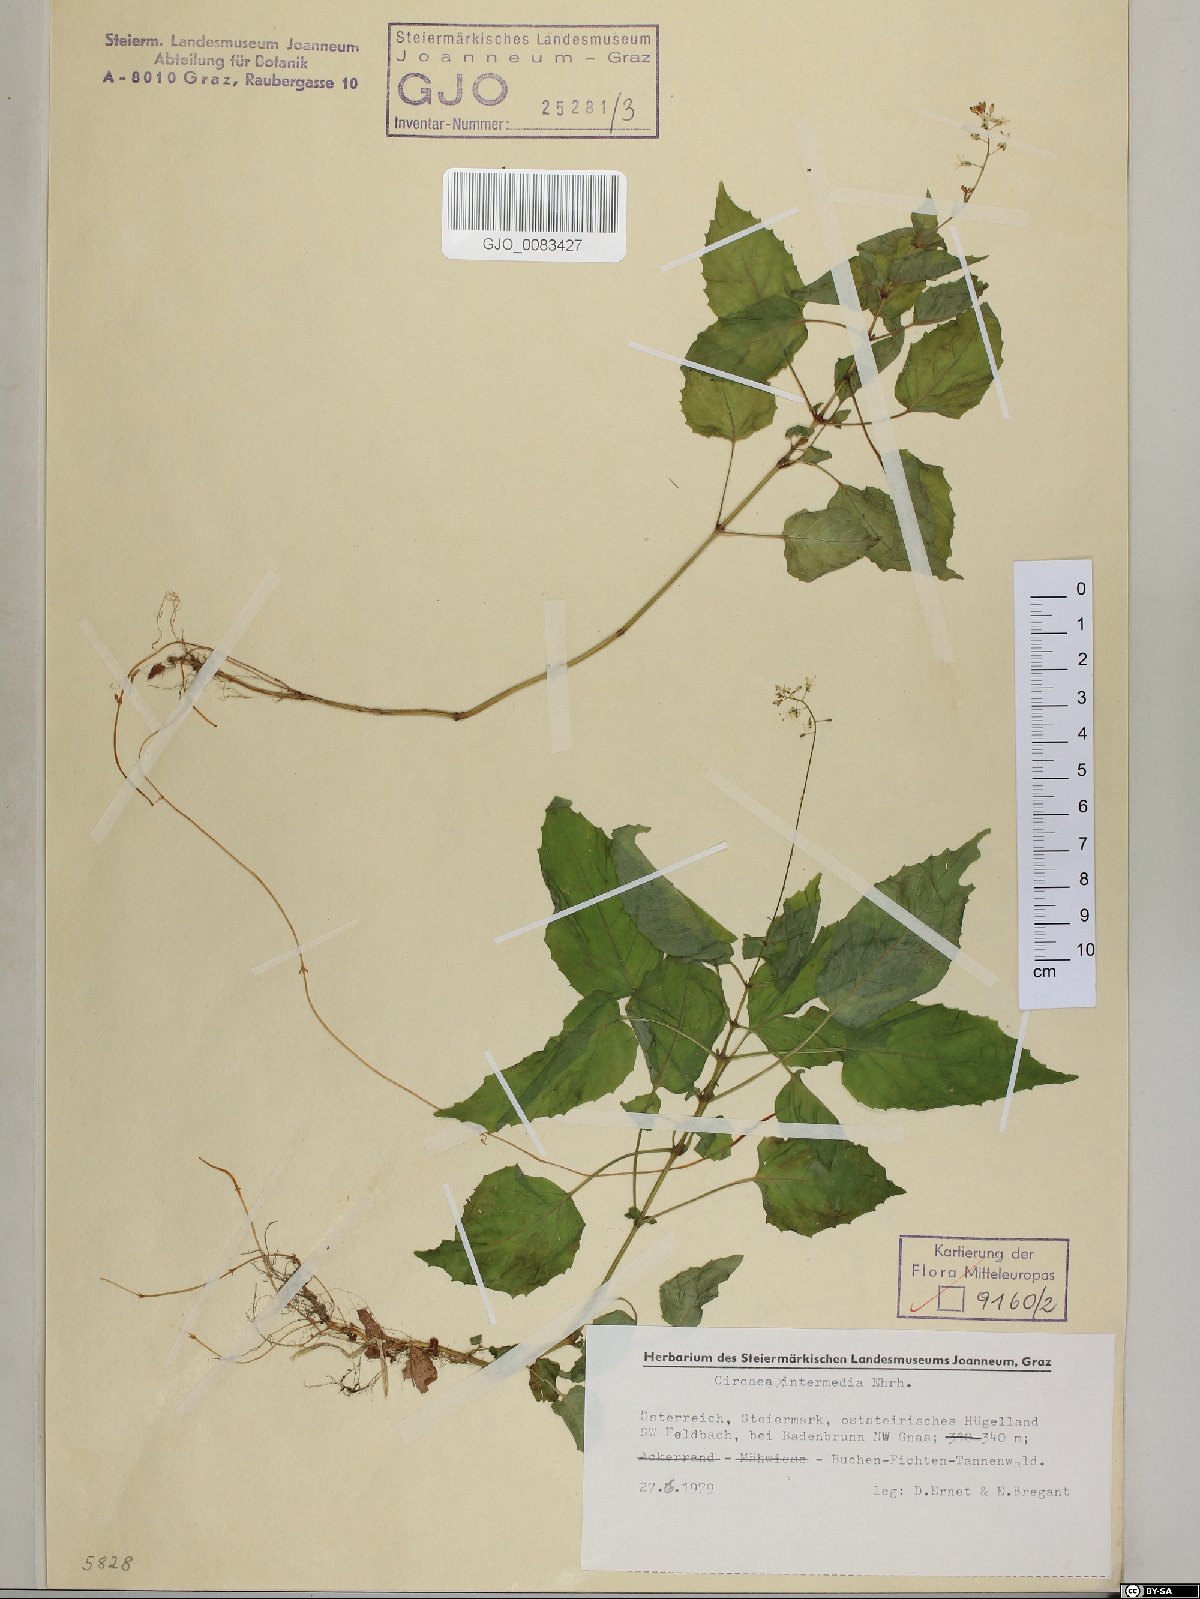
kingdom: Plantae
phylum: Tracheophyta
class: Magnoliopsida
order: Myrtales
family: Onagraceae
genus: Circaea
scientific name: Circaea intermedia
